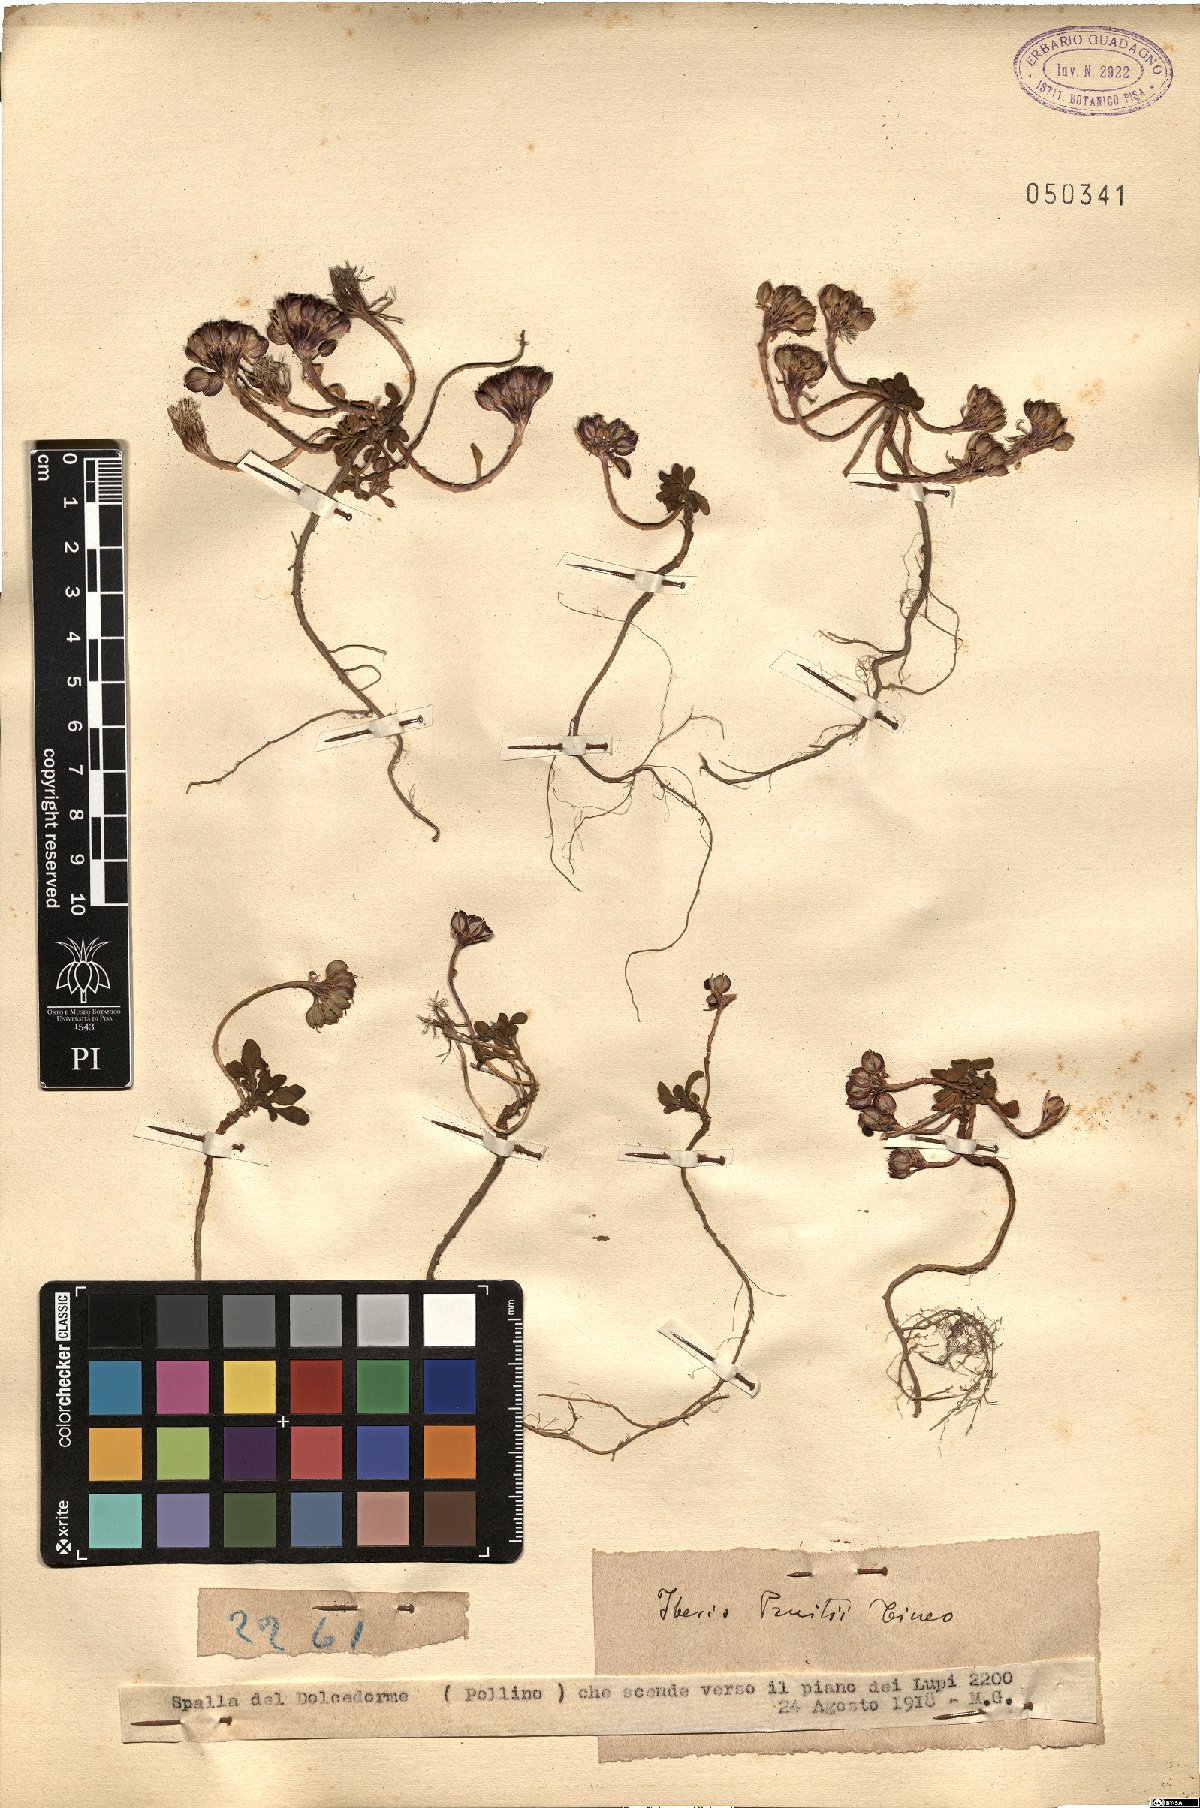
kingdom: Plantae
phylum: Tracheophyta
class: Magnoliopsida
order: Brassicales
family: Brassicaceae
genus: Iberis
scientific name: Iberis carnosa
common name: Pruit's candytuft
